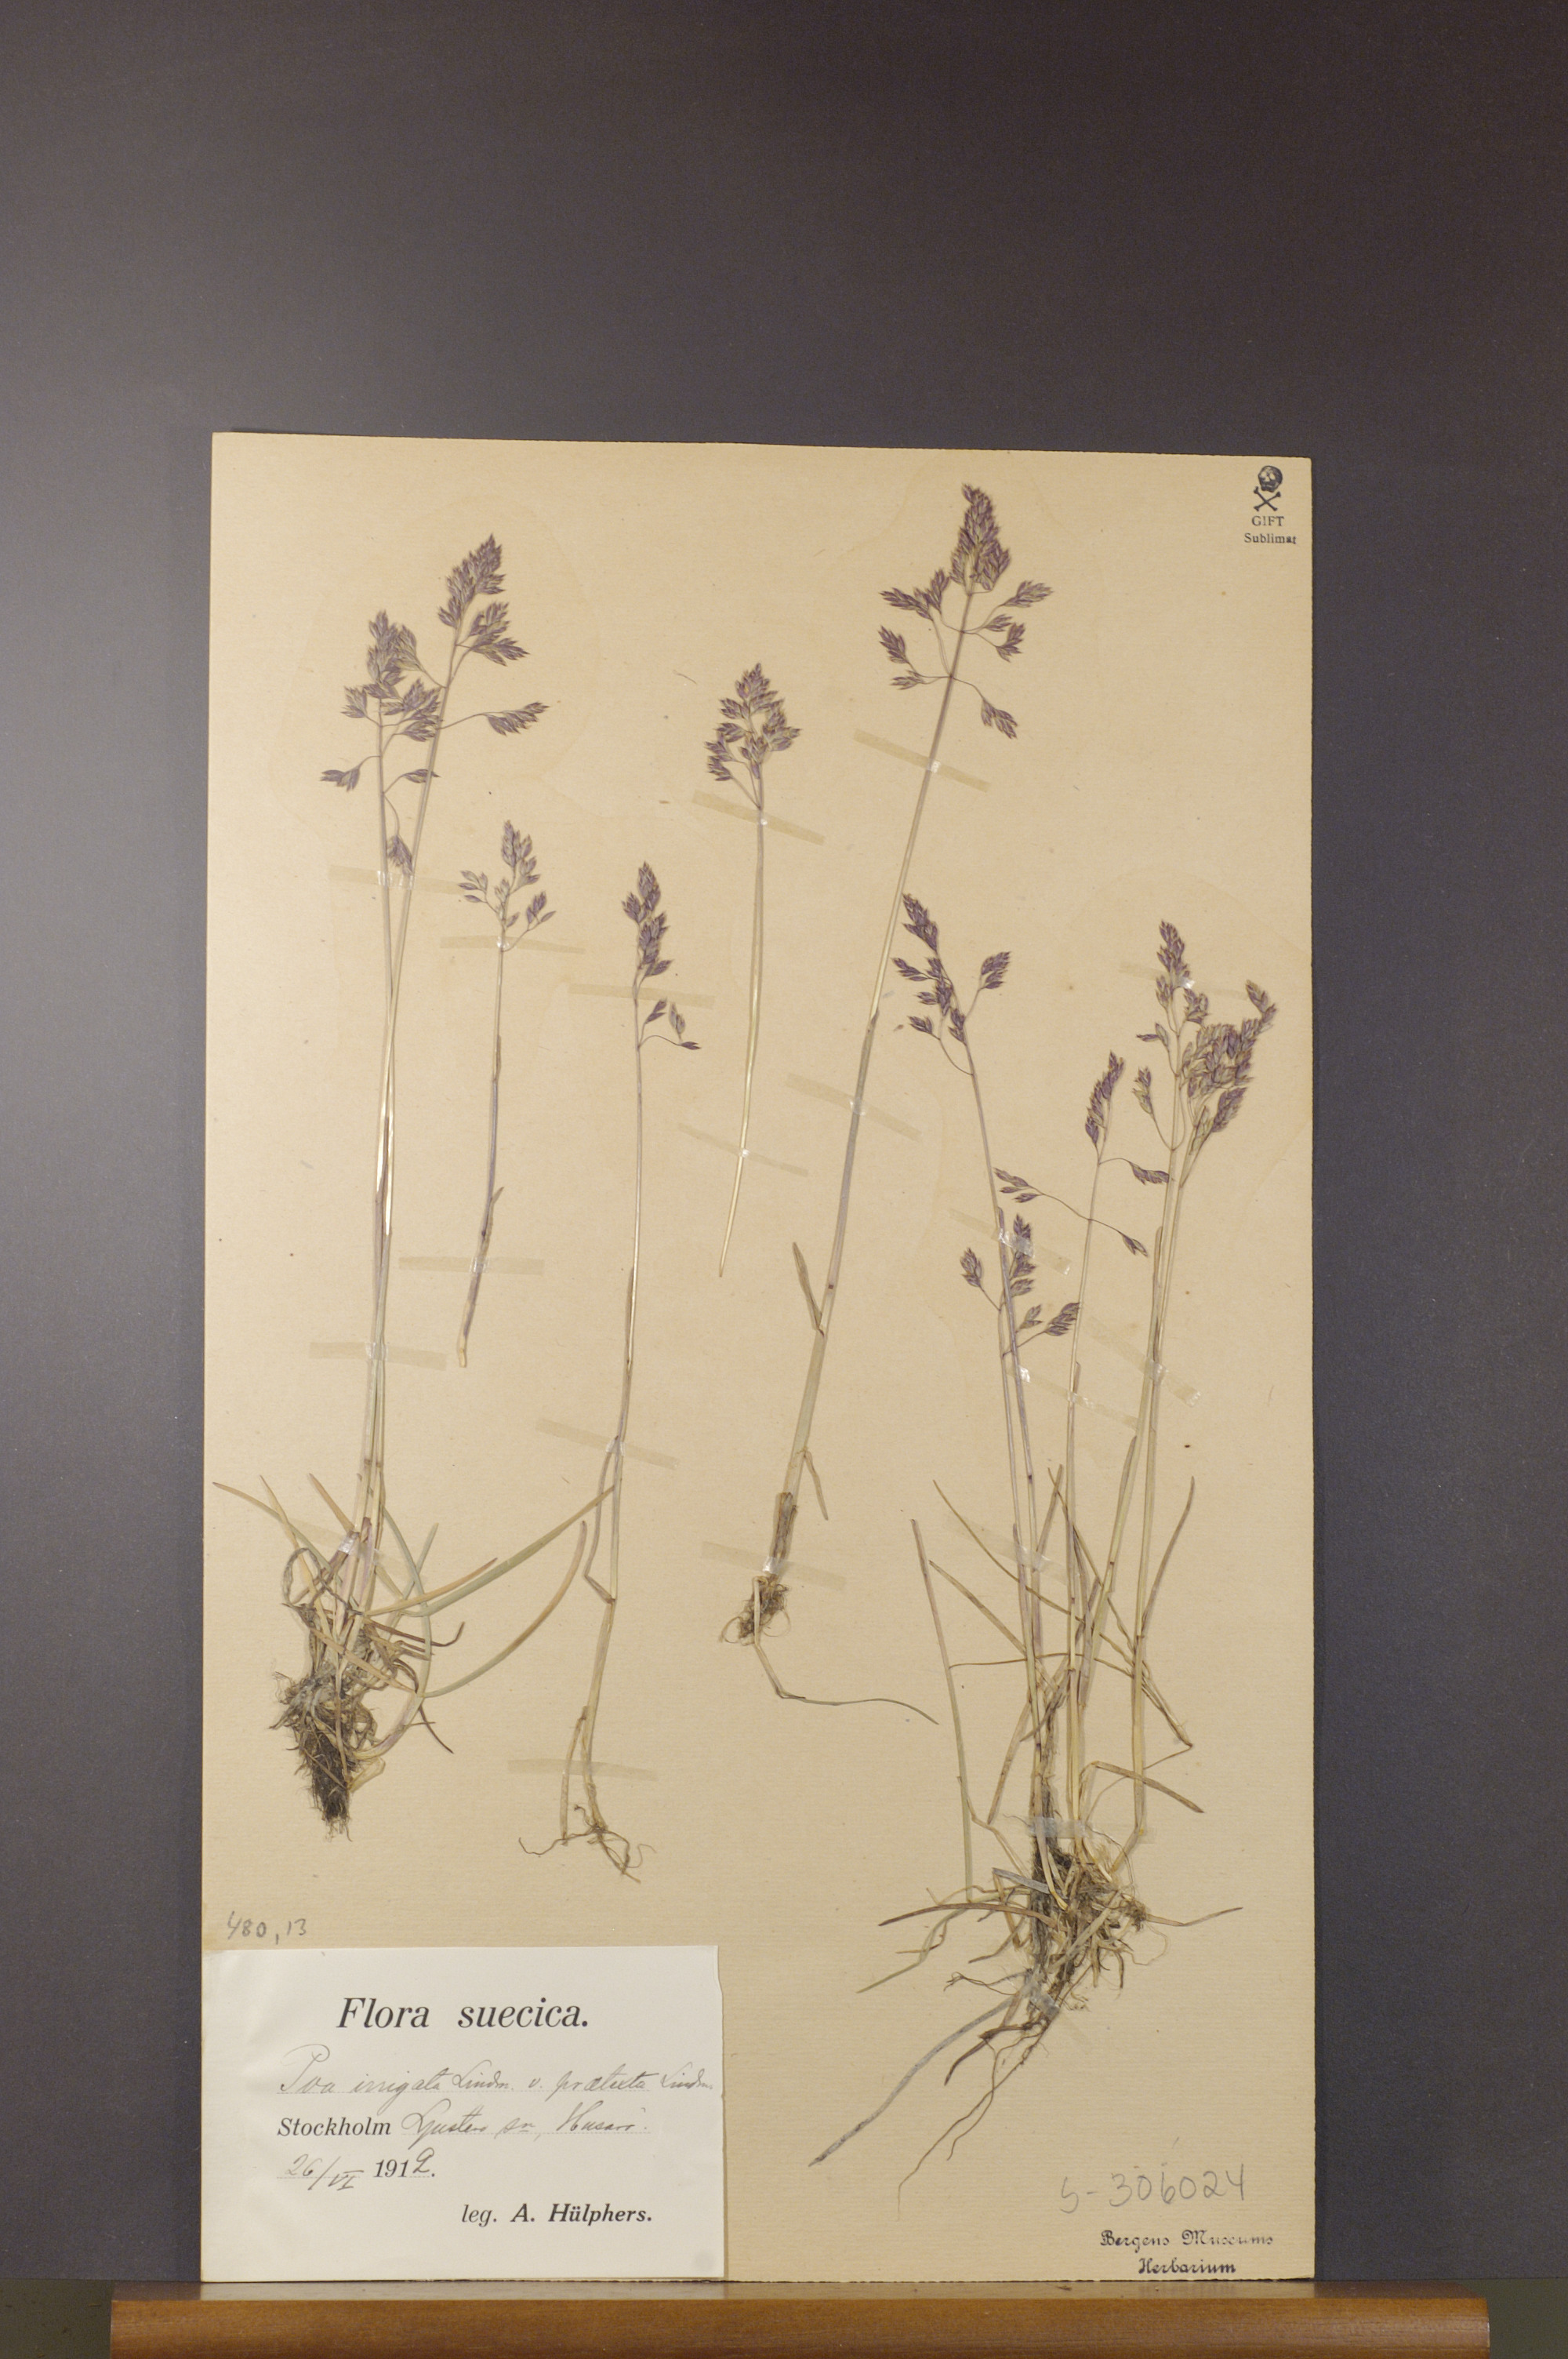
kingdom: Plantae
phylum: Tracheophyta
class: Liliopsida
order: Poales
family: Poaceae
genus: Poa
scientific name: Poa humilis
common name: Spreading meadow-grass
